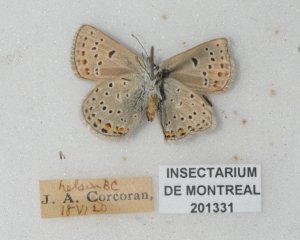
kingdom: Animalia
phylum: Arthropoda
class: Insecta
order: Lepidoptera
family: Lycaenidae
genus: Lycaeides
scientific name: Lycaeides melissa
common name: Melissa Blue
